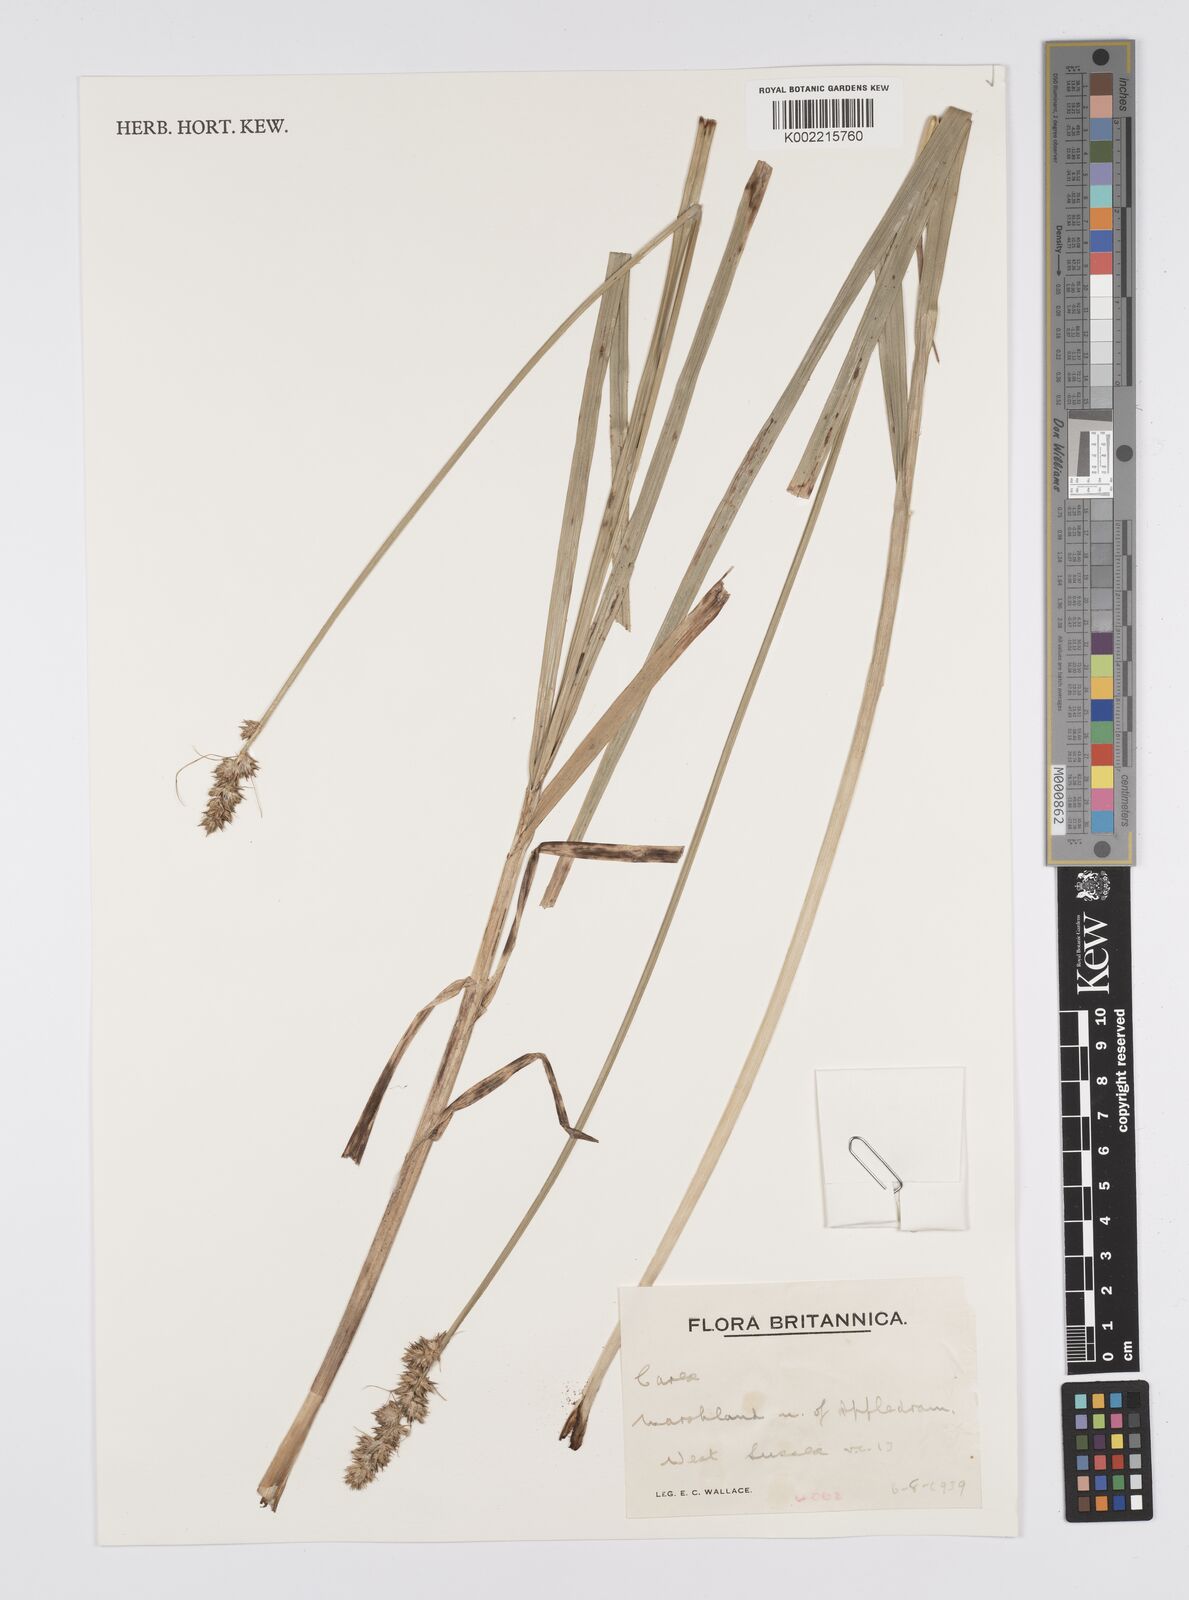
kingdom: Plantae
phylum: Tracheophyta
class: Liliopsida
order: Poales
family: Cyperaceae
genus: Carex
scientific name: Carex
